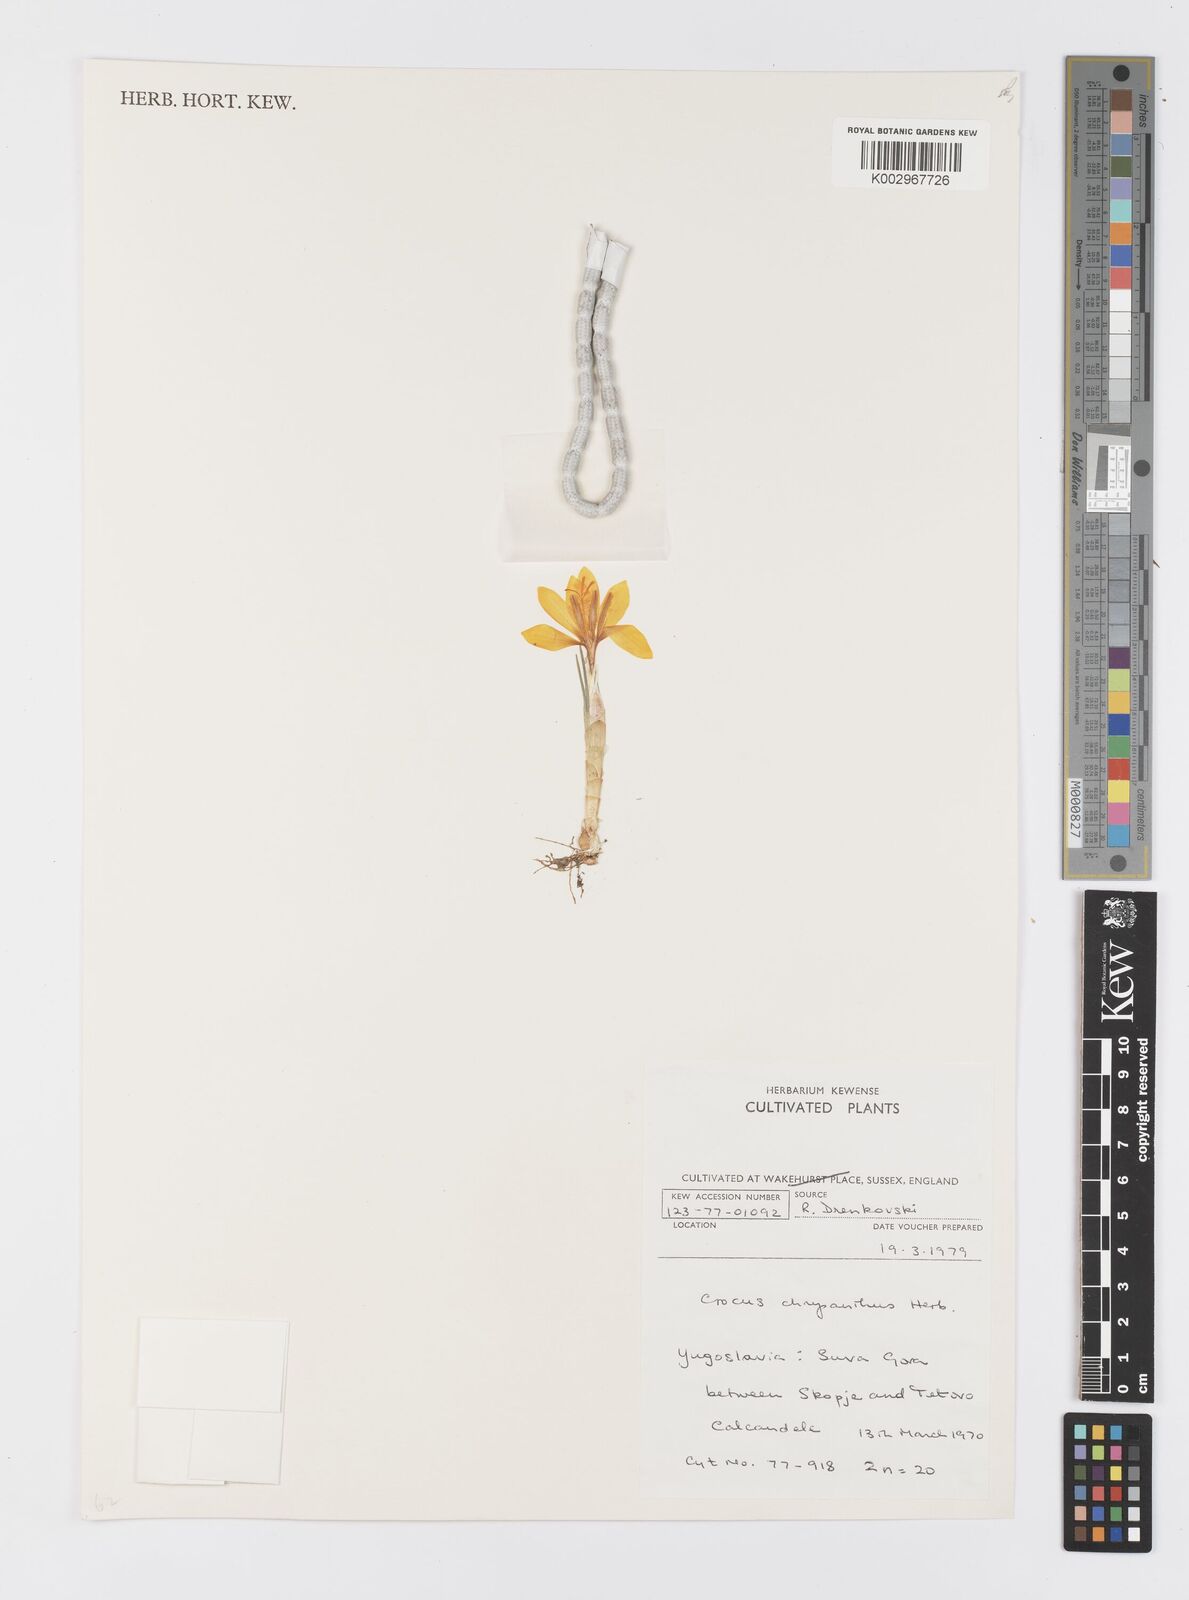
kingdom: Plantae
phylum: Tracheophyta
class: Liliopsida
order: Asparagales
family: Iridaceae
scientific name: Iridaceae
